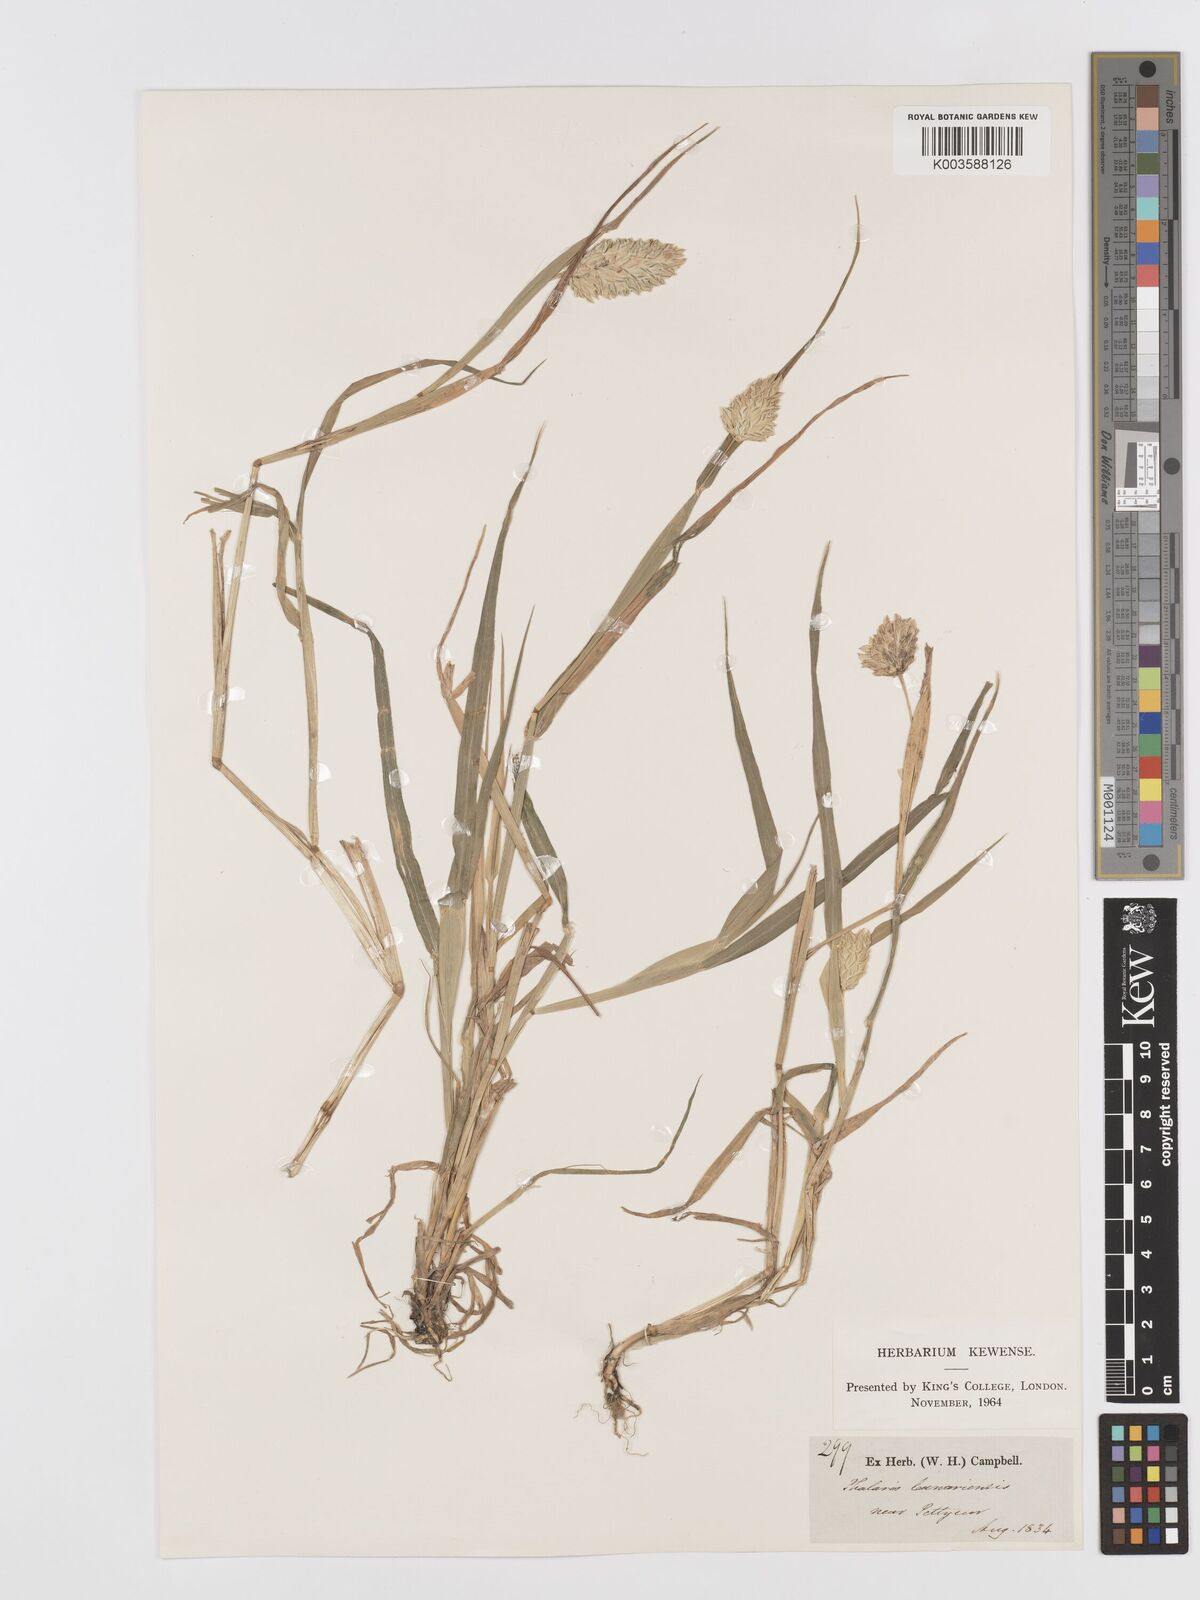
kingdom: Plantae
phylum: Tracheophyta
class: Liliopsida
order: Poales
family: Poaceae
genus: Phalaris
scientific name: Phalaris canariensis
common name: Annual canarygrass
